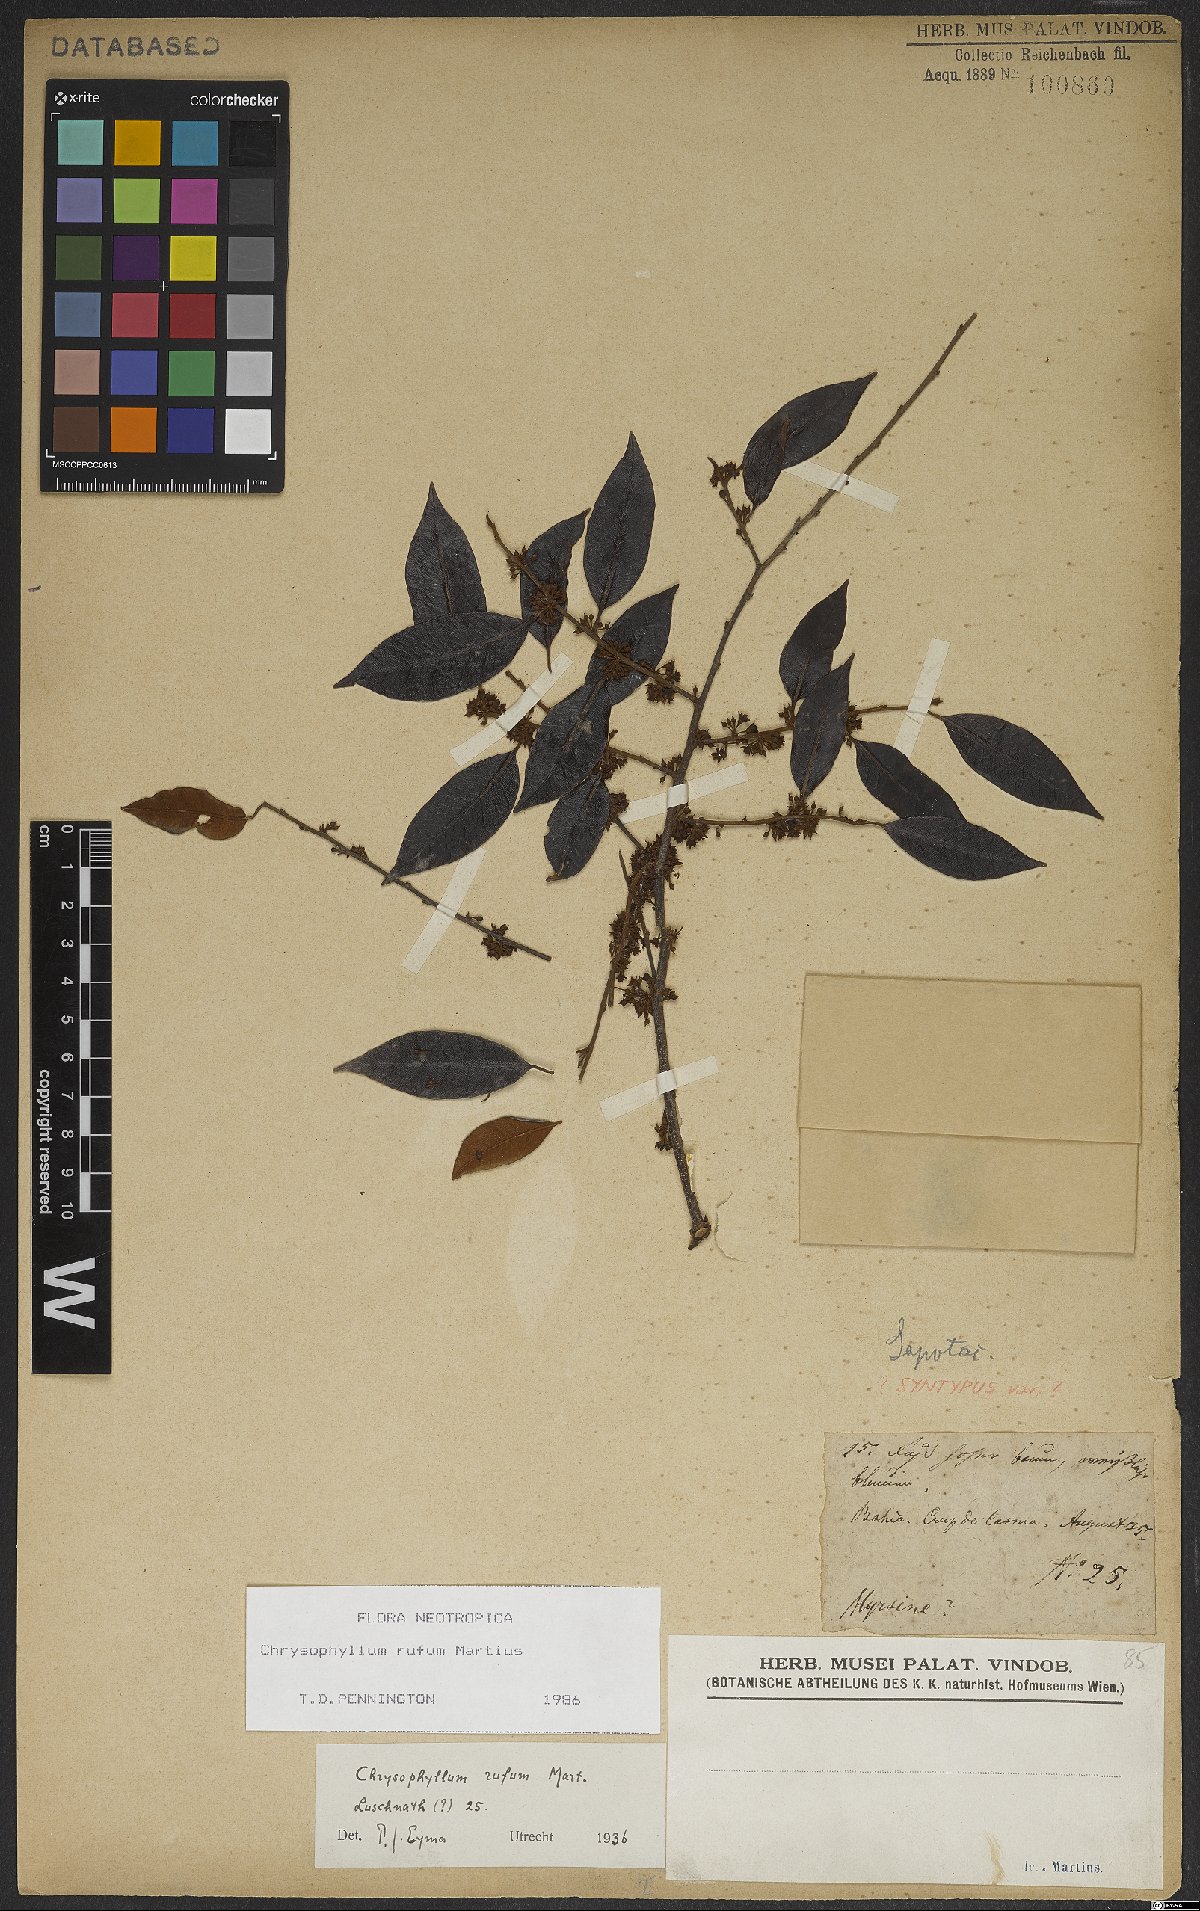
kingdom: Plantae
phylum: Tracheophyta
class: Magnoliopsida
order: Ericales
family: Sapotaceae
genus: Chrysophyllum
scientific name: Chrysophyllum rufum
